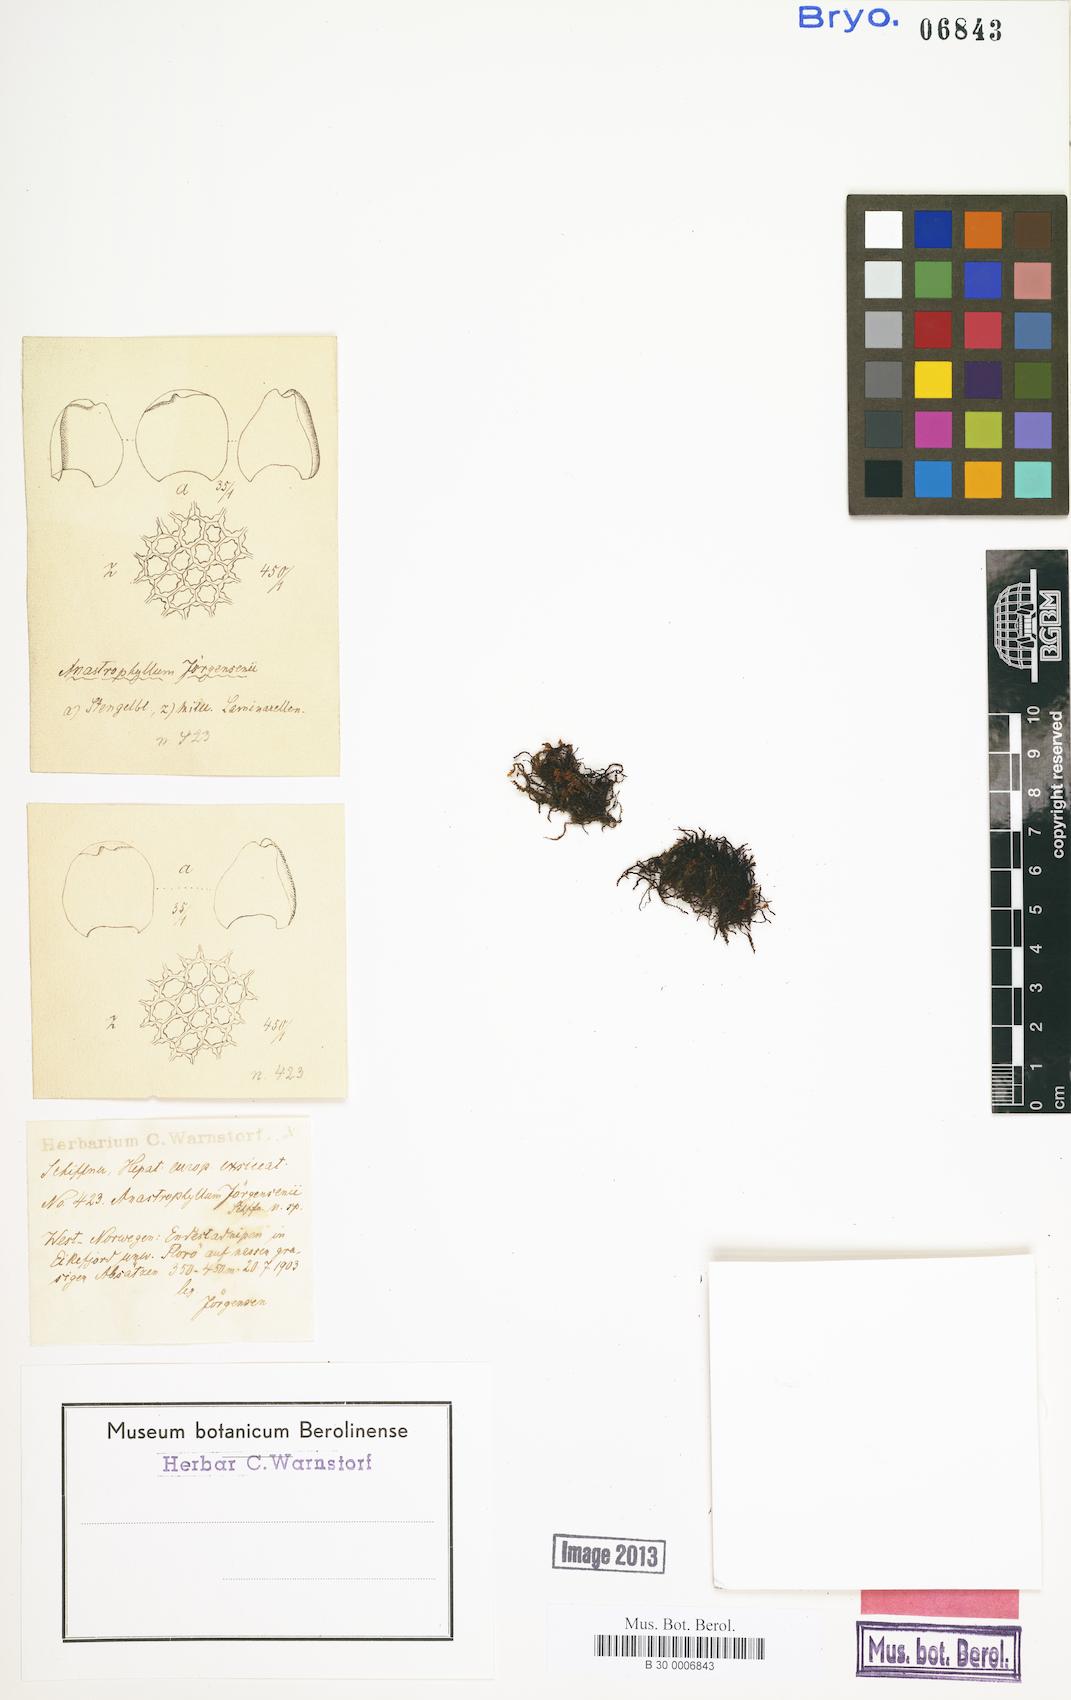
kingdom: Plantae
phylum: Marchantiophyta
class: Jungermanniopsida
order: Jungermanniales
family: Anastrophyllaceae
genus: Anastrophyllum
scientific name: Anastrophyllum
